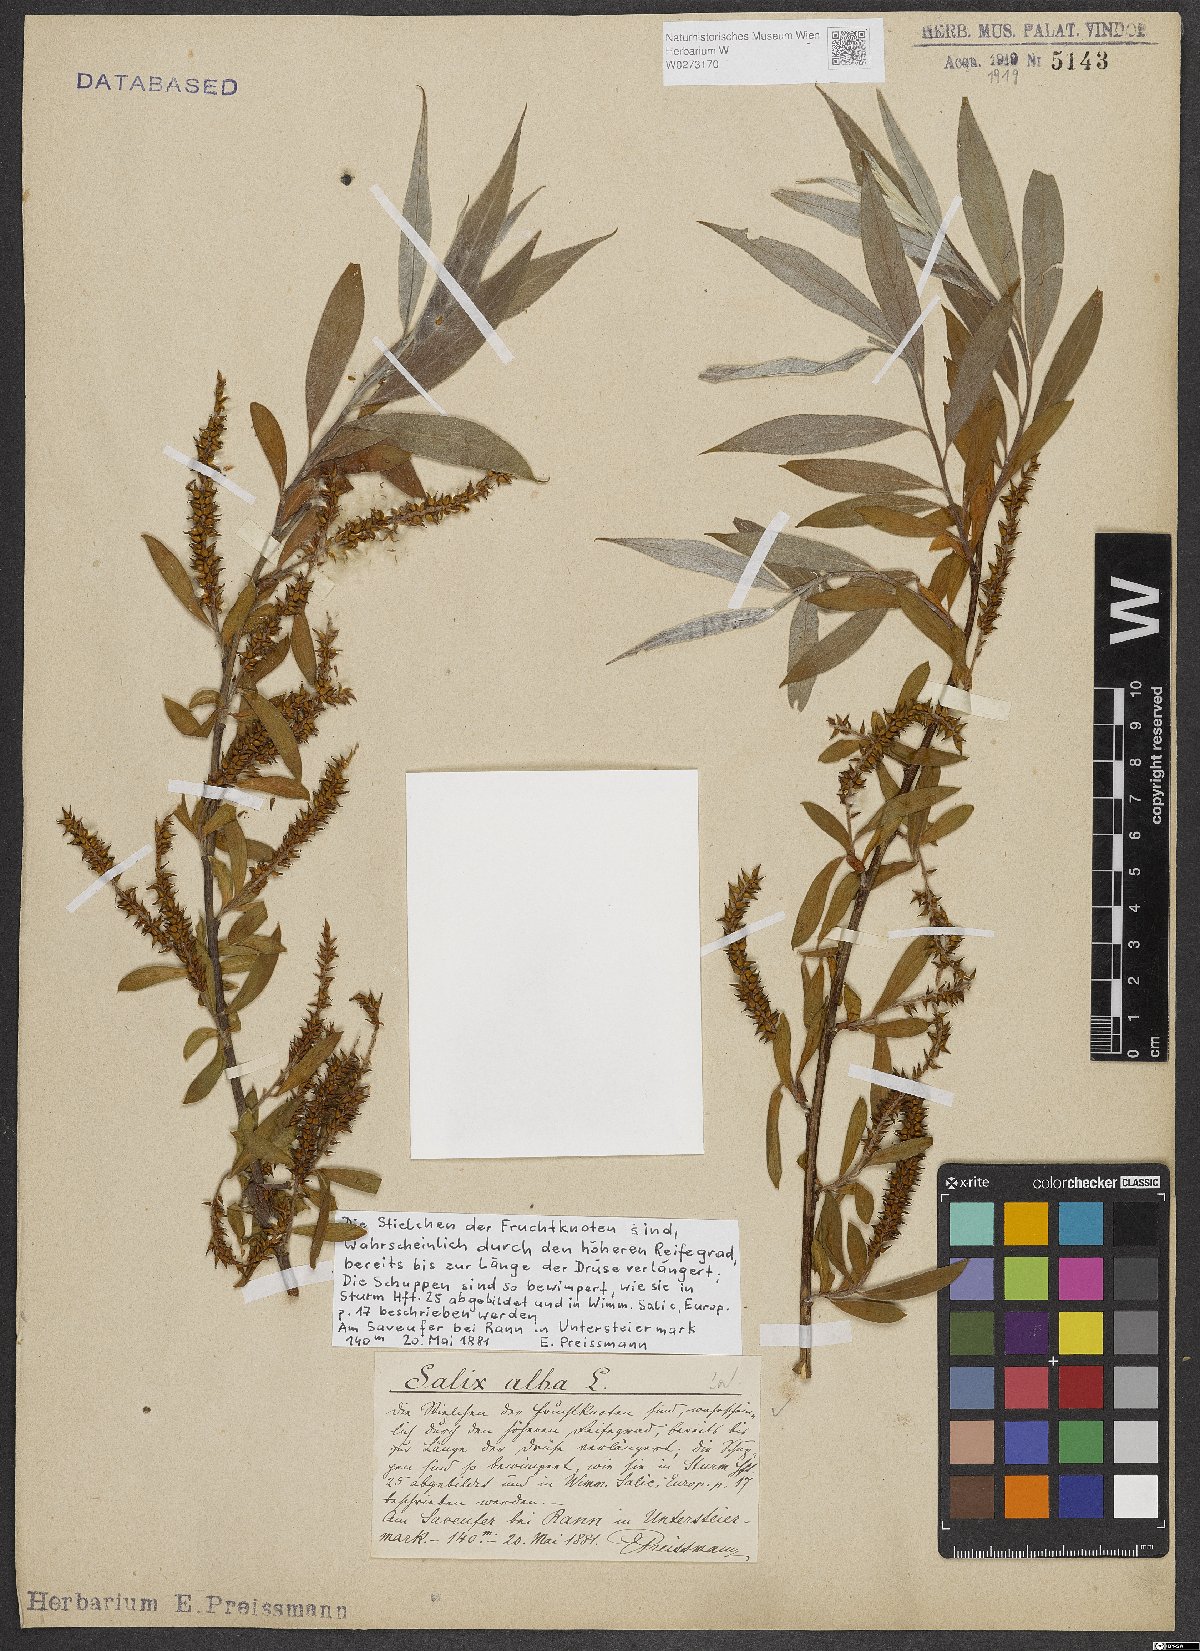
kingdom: Plantae
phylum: Tracheophyta
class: Magnoliopsida
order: Malpighiales
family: Salicaceae
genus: Salix
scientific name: Salix alba
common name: White willow
